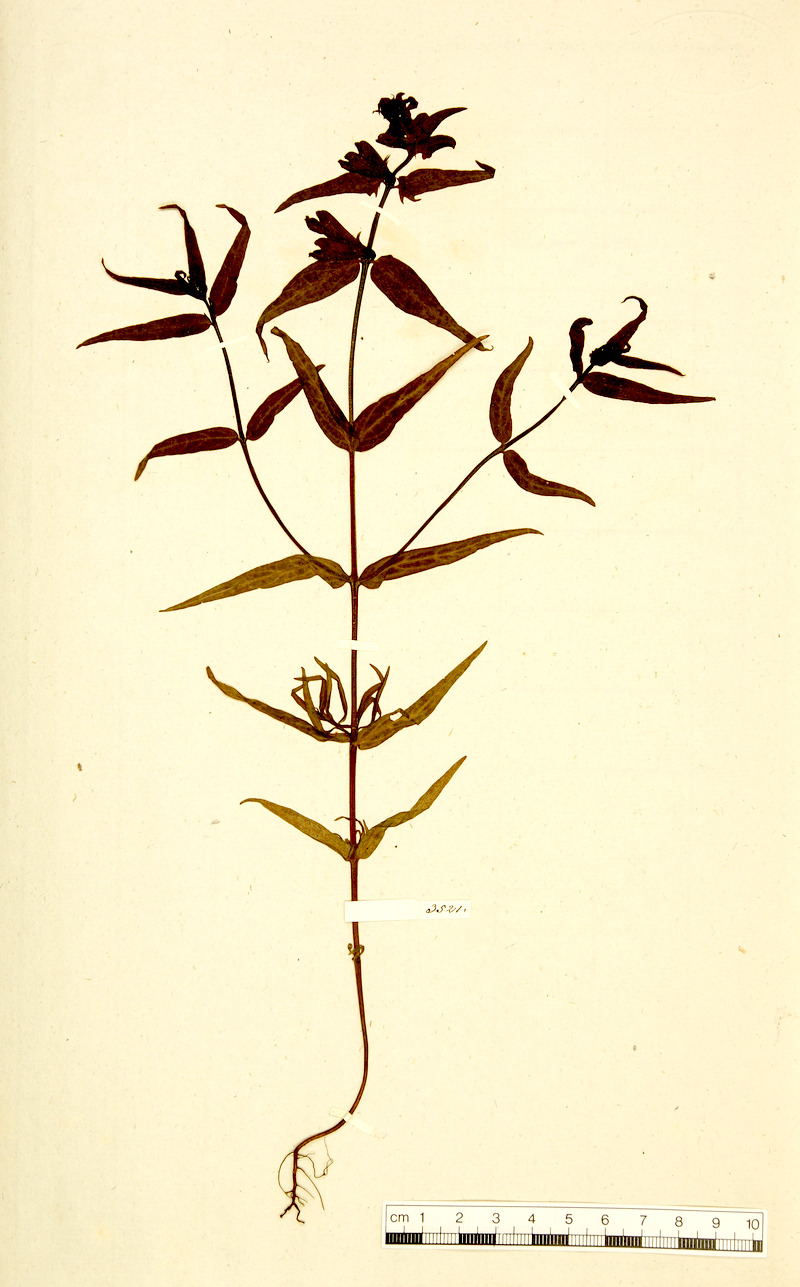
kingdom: Plantae
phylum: Tracheophyta
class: Magnoliopsida
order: Lamiales
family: Orobanchaceae
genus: Melampyrum
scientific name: Melampyrum pratense
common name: Common cow-wheat
